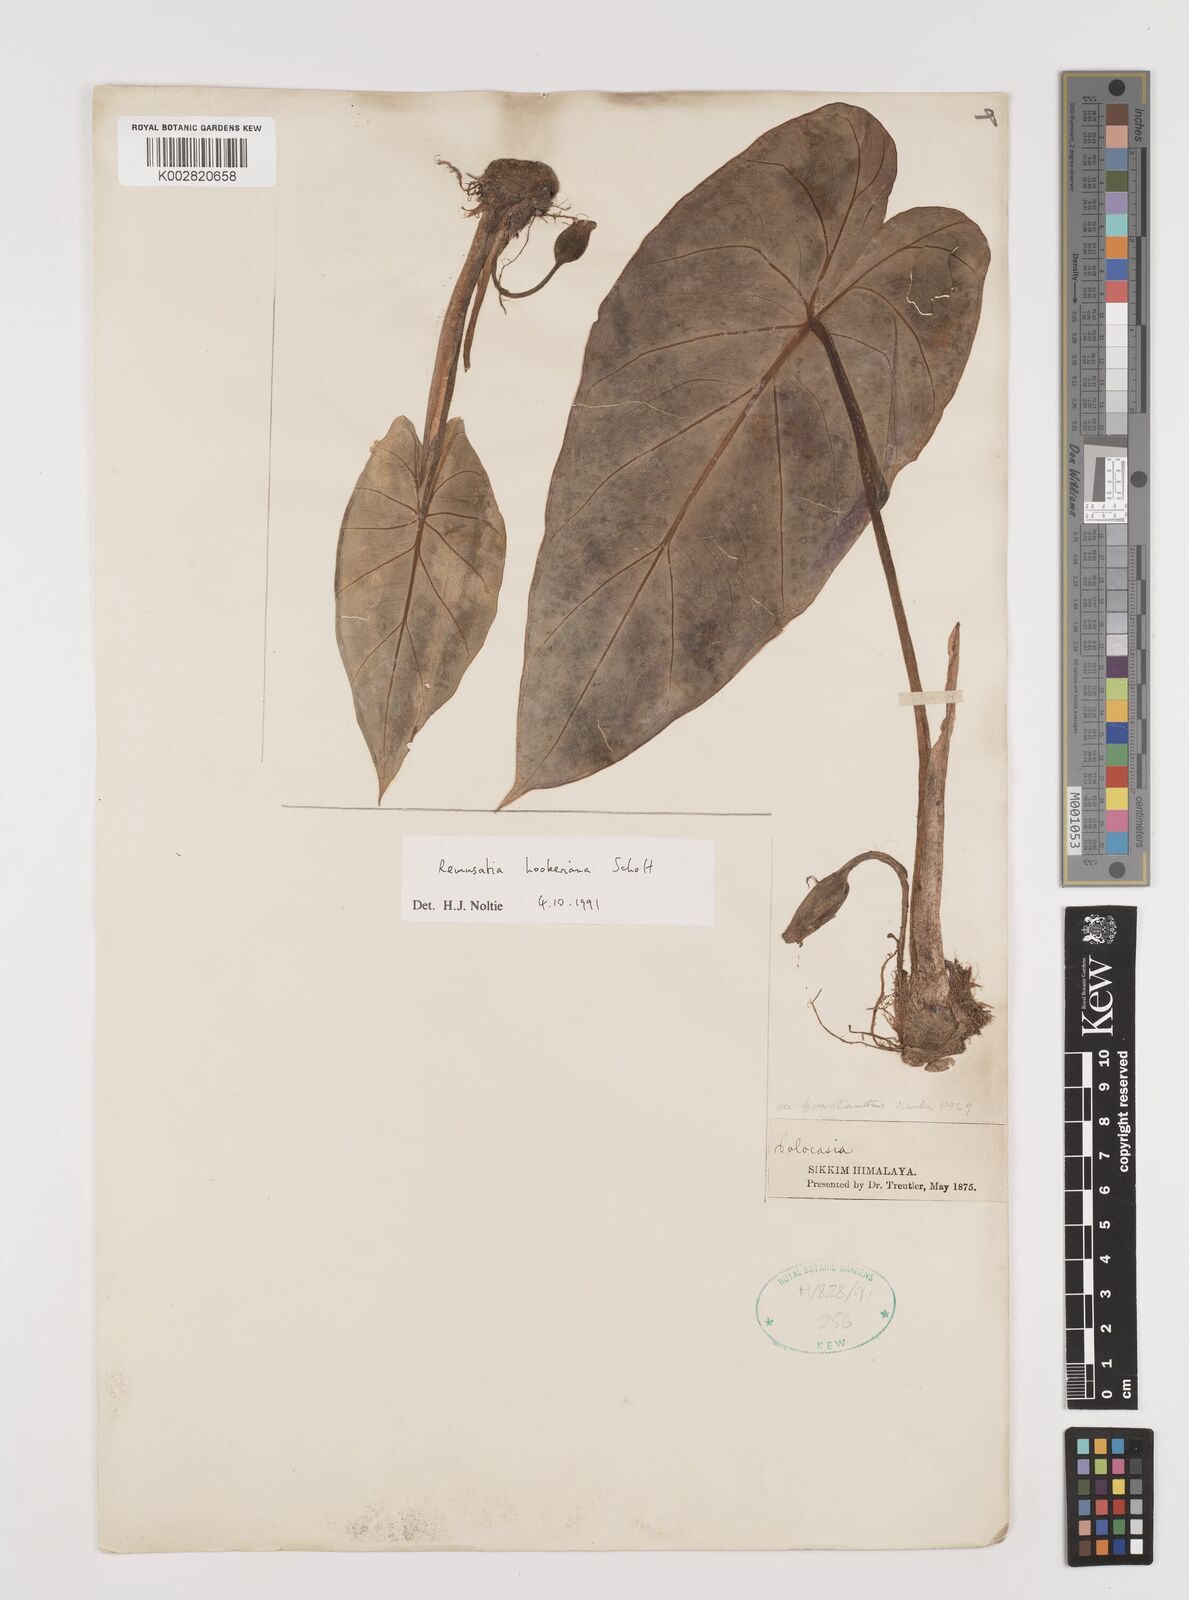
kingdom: Plantae
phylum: Tracheophyta
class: Liliopsida
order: Alismatales
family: Araceae
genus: Remusatia
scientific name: Remusatia hookeriana
